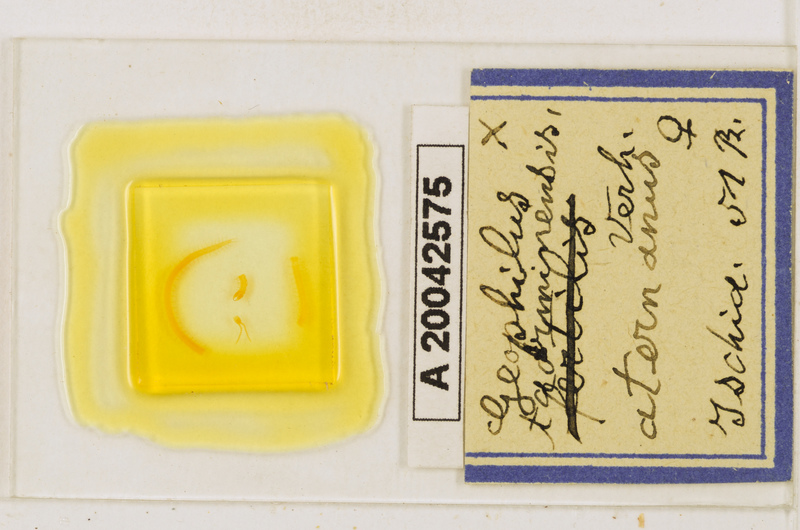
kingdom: Animalia
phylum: Arthropoda
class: Chilopoda
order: Geophilomorpha
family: Geophilidae
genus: Geophilus
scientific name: Geophilus osquidatum
